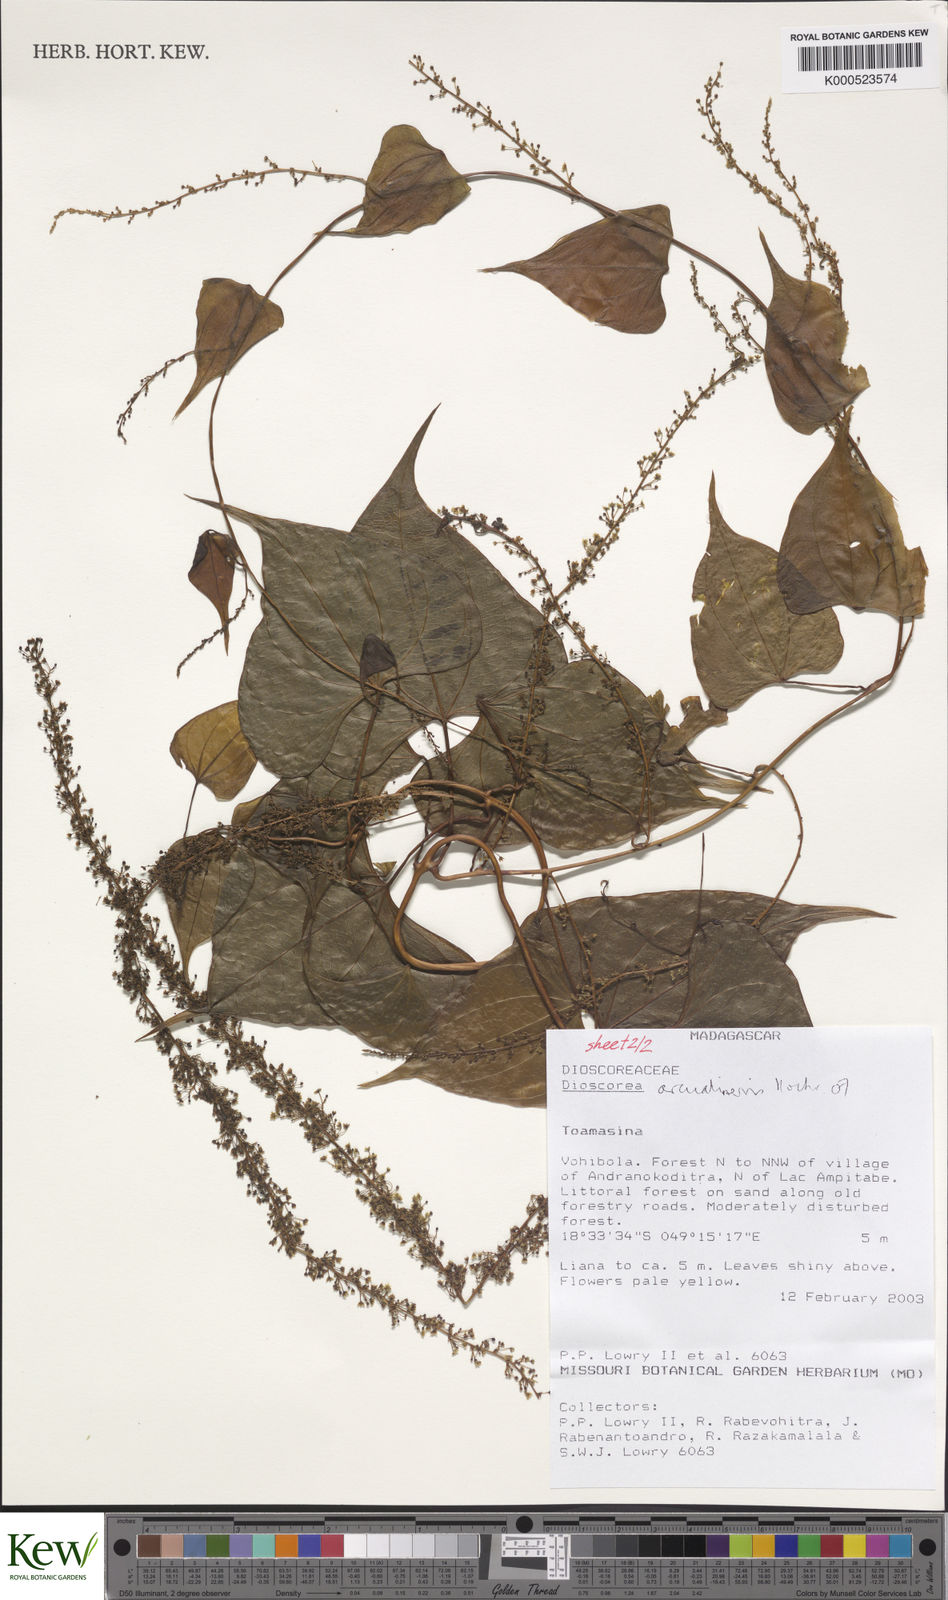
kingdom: Plantae
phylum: Tracheophyta
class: Liliopsida
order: Dioscoreales
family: Dioscoreaceae
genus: Dioscorea
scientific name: Dioscorea arcuatinervis
